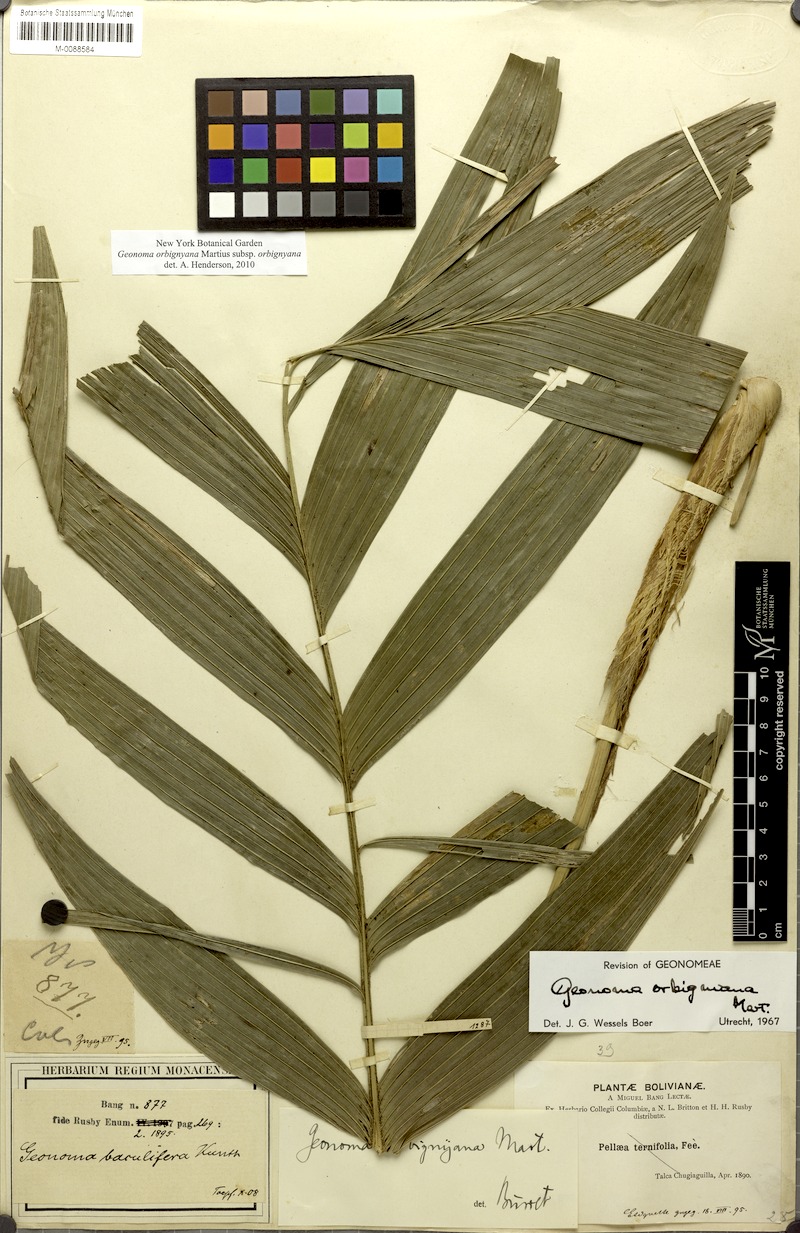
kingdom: Plantae
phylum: Tracheophyta
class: Liliopsida
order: Arecales
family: Arecaceae
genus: Geonoma
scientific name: Geonoma orbignyana
